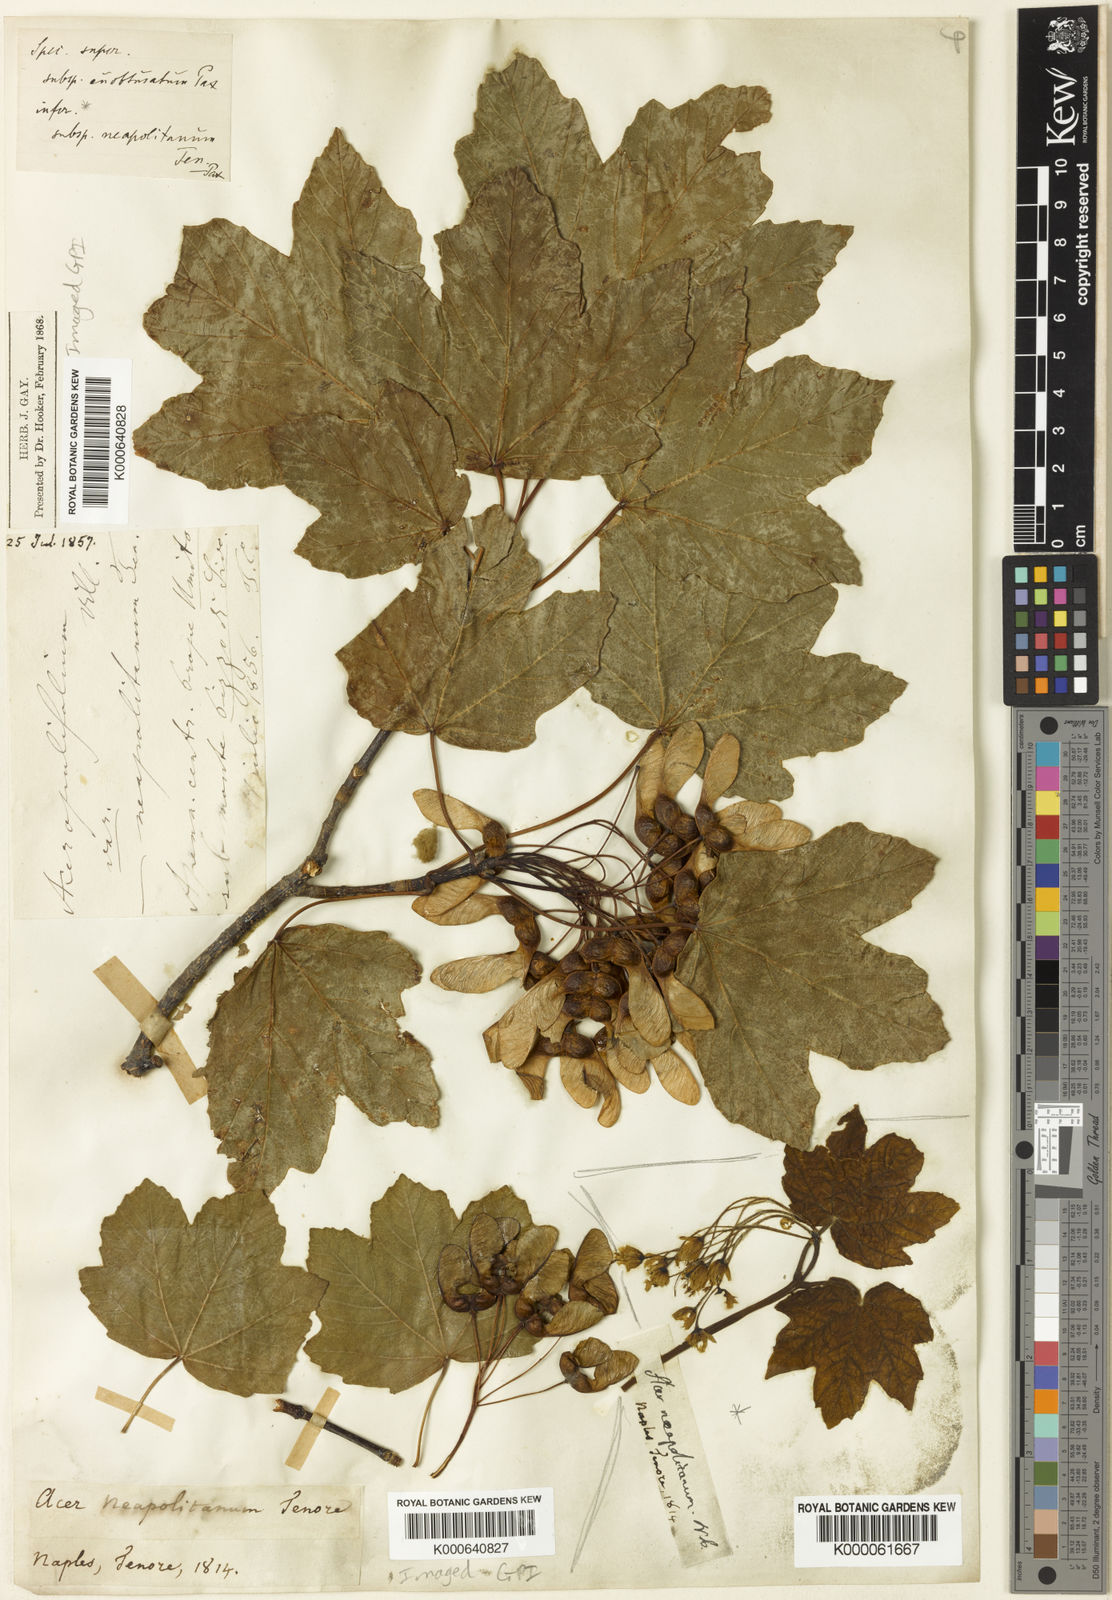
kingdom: Plantae
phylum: Tracheophyta
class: Magnoliopsida
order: Sapindales
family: Sapindaceae
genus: Acer
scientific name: Acer opalus
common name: Italian maple
